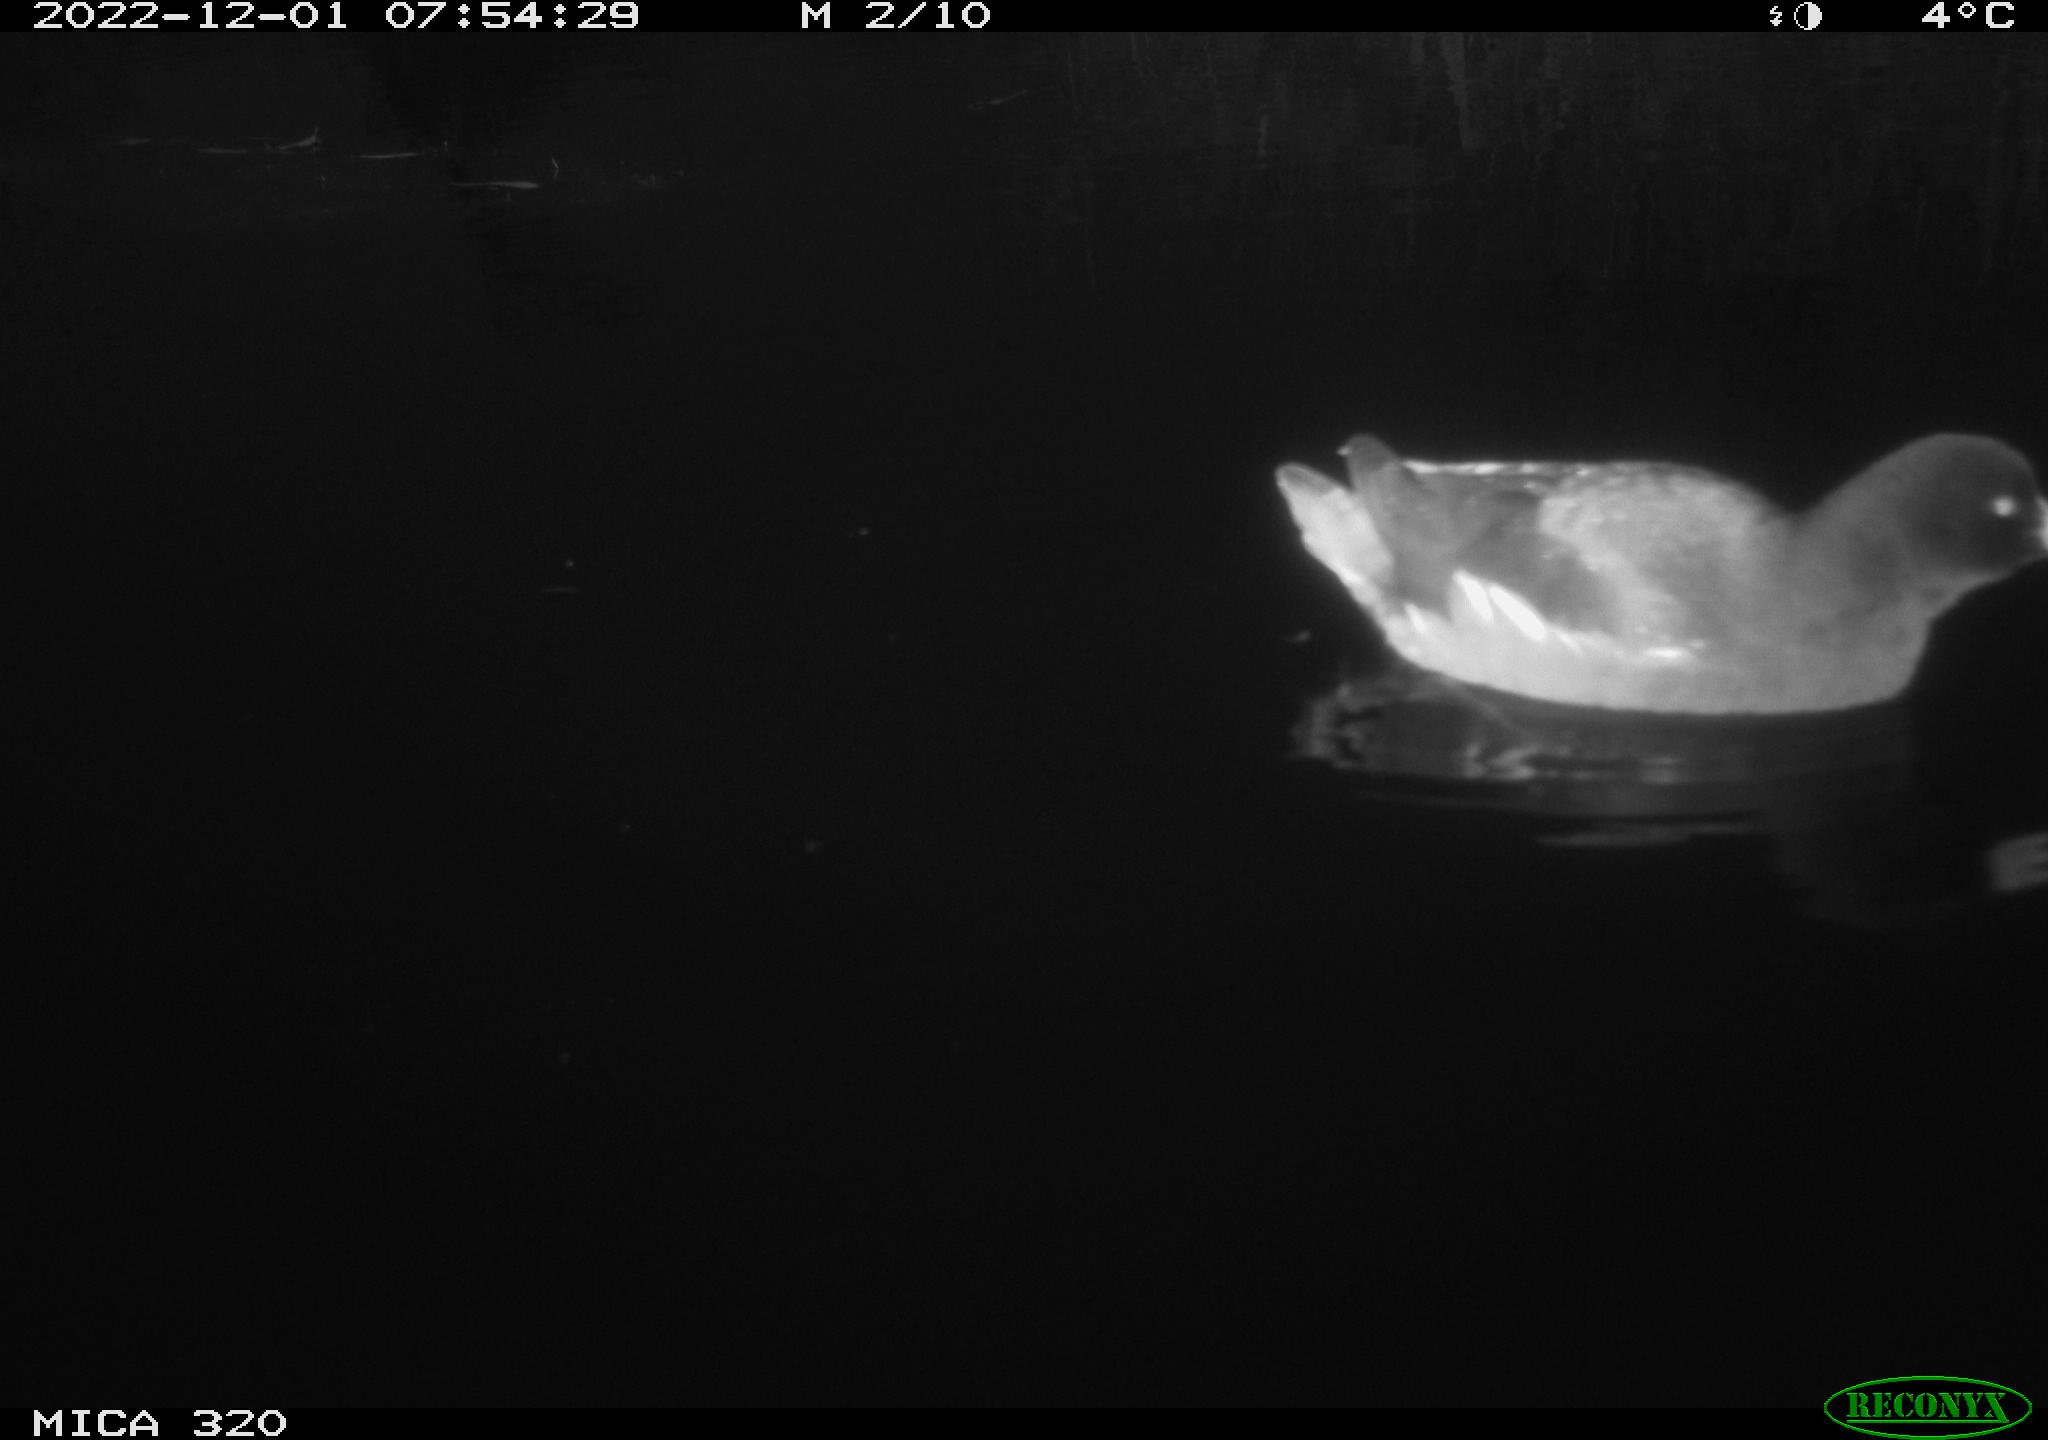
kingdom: Animalia
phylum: Chordata
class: Aves
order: Gruiformes
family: Rallidae
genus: Gallinula
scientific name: Gallinula chloropus
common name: Common moorhen
